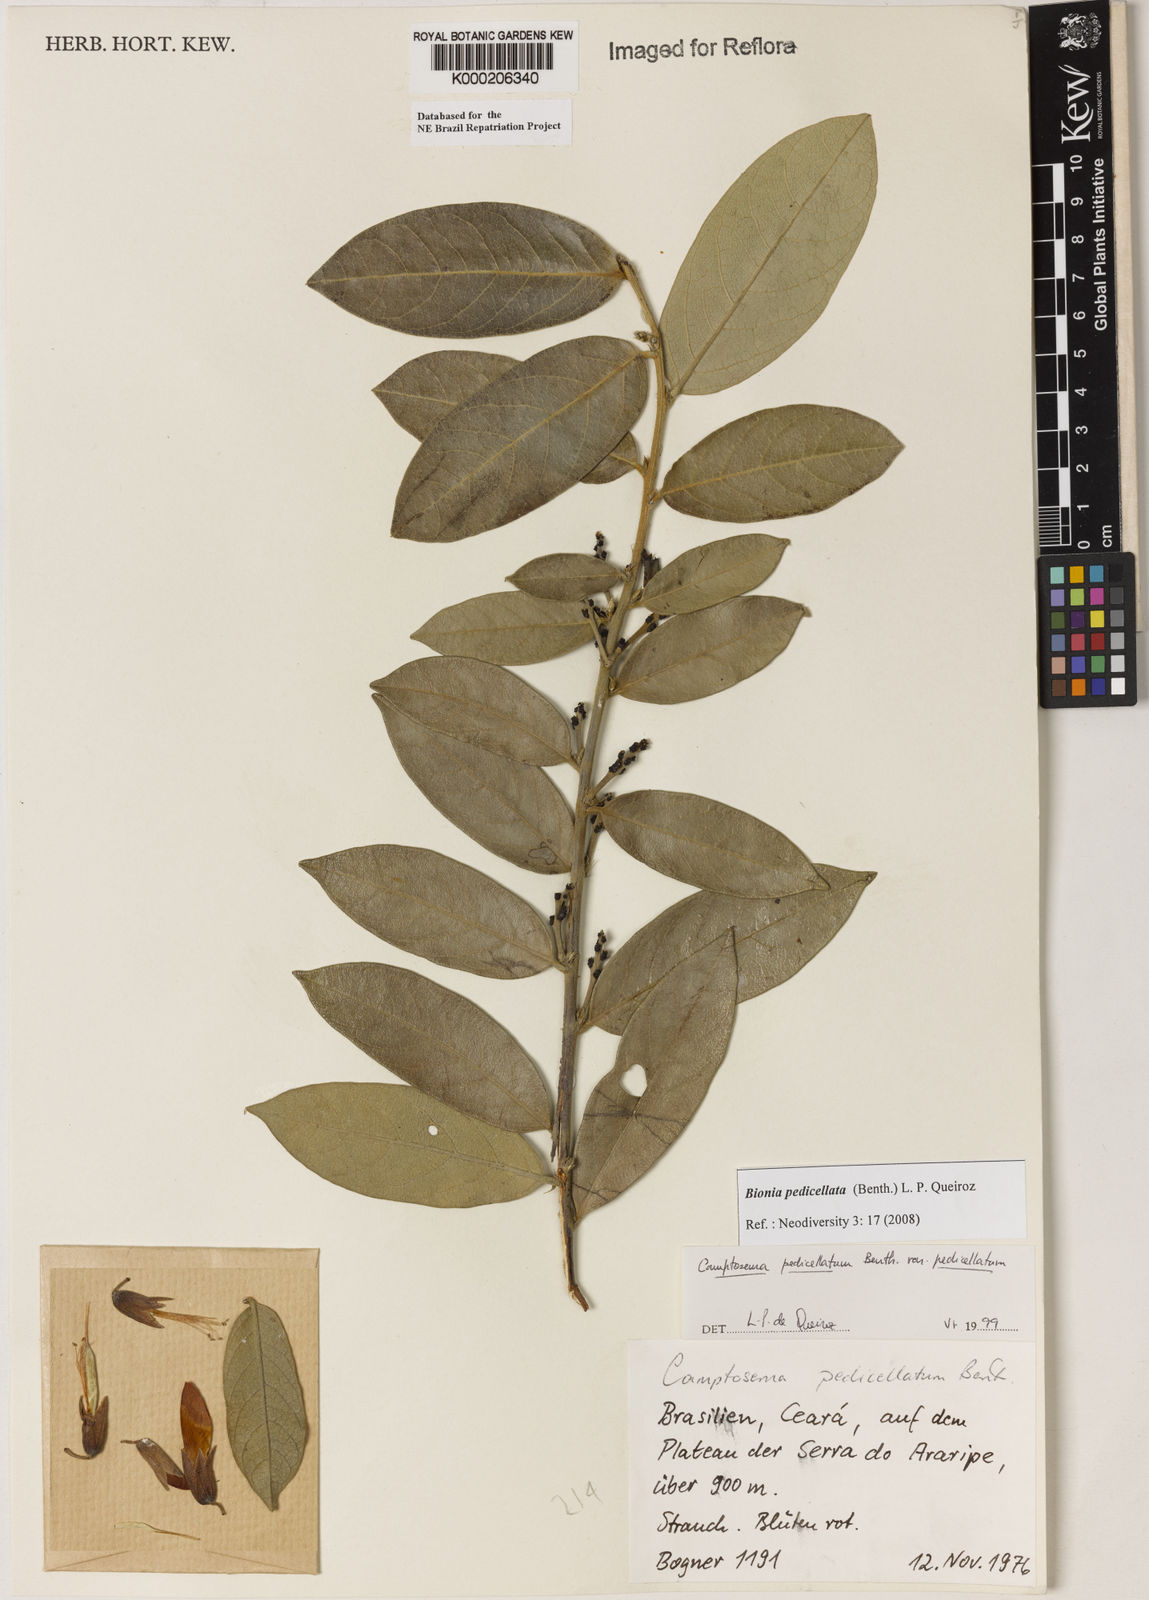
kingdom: Plantae
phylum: Tracheophyta
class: Magnoliopsida
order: Fabales
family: Fabaceae
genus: Camptosema
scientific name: Camptosema pedicellatum
